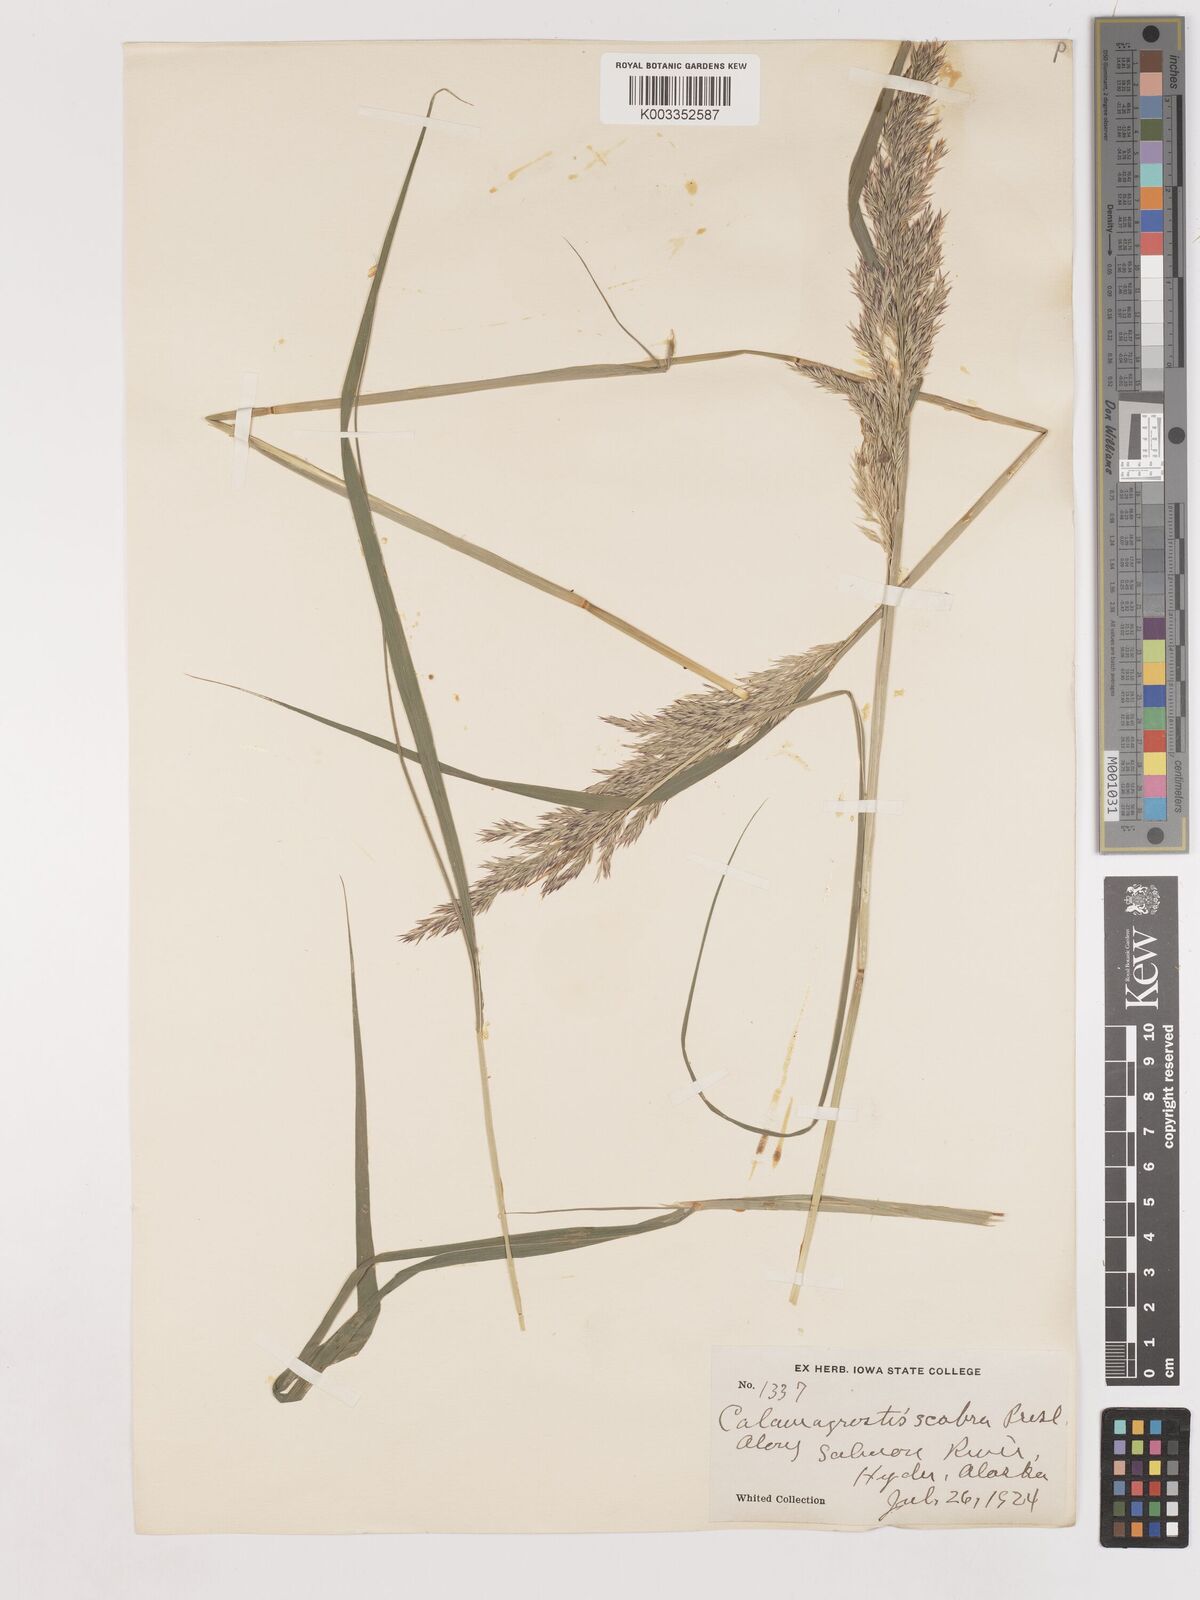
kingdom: Plantae
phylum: Tracheophyta
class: Liliopsida
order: Poales
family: Poaceae
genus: Calamagrostis
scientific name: Calamagrostis canadensis
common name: Canada bluejoint
